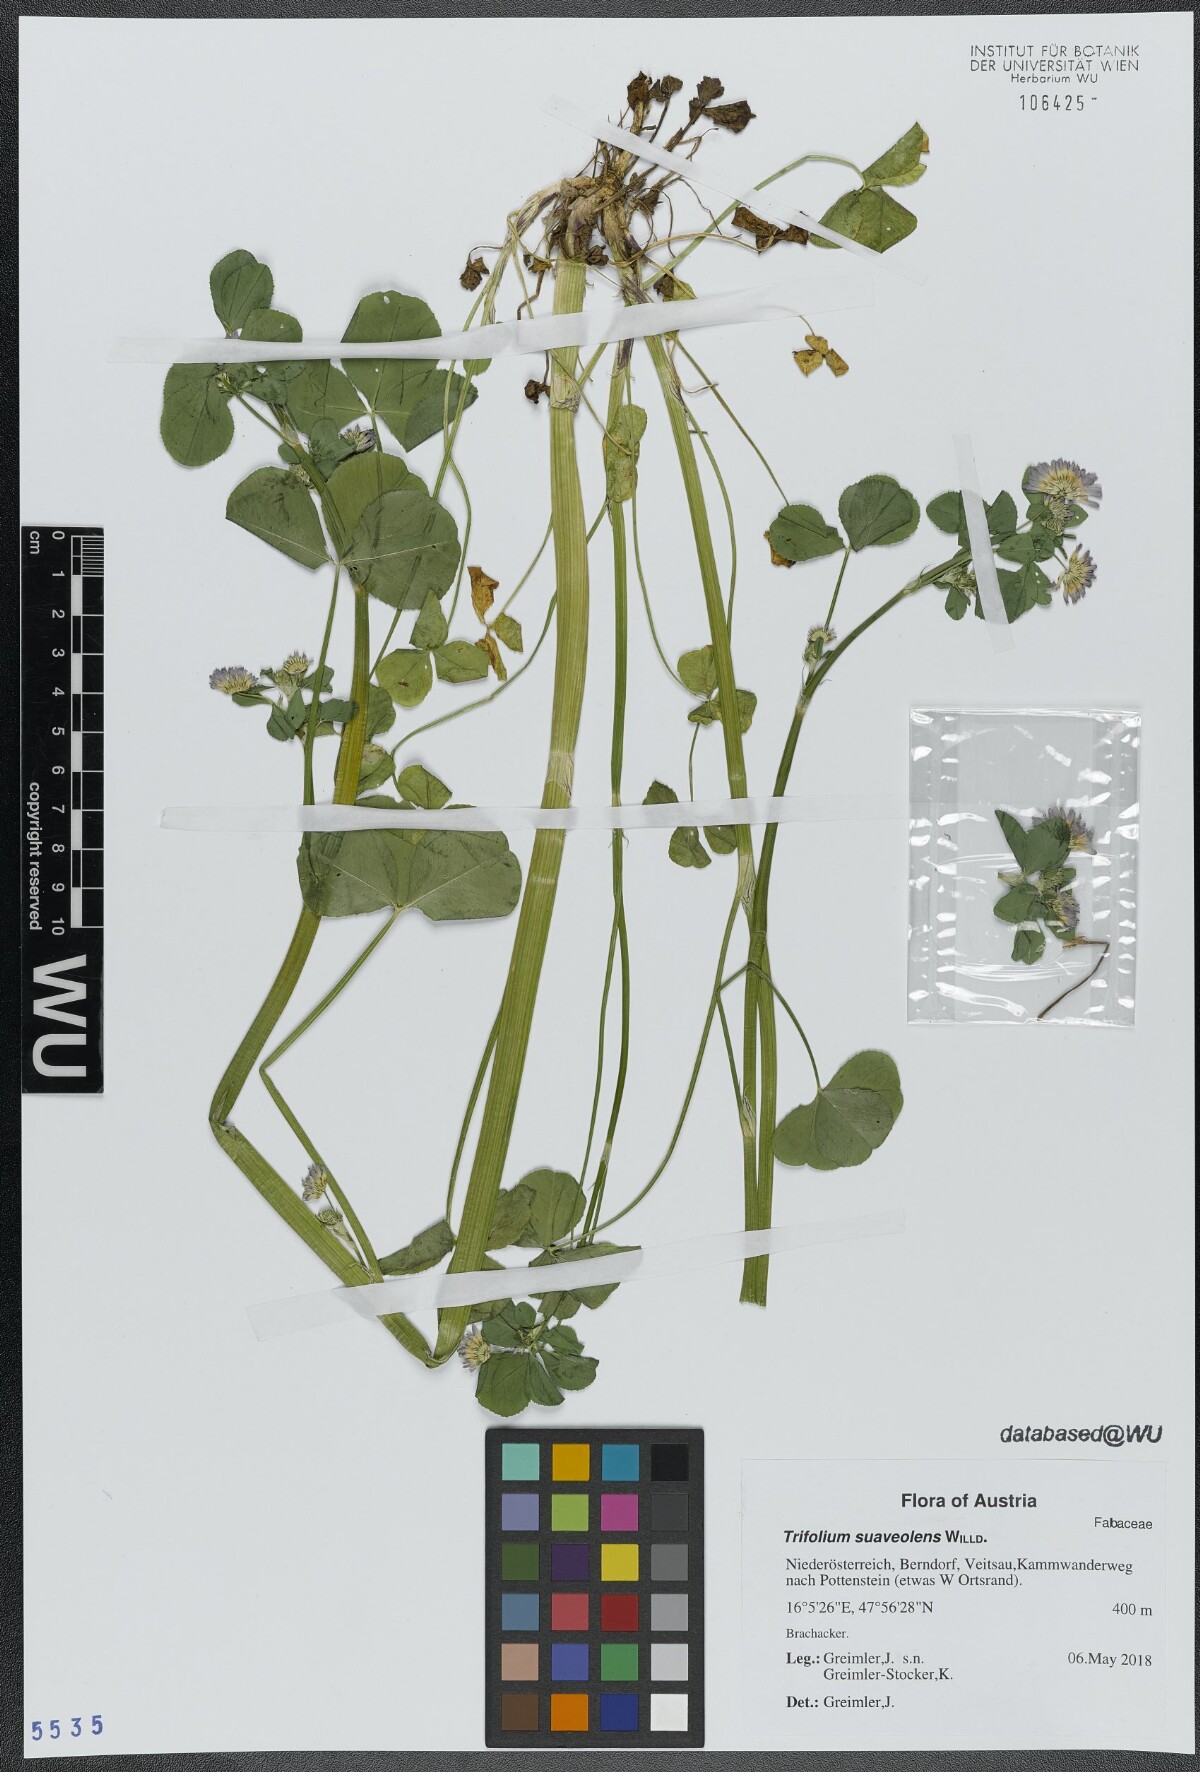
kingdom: Plantae
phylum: Tracheophyta
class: Magnoliopsida
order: Fabales
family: Fabaceae
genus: Trifolium
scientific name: Trifolium resupinatum
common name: Reversed clover
